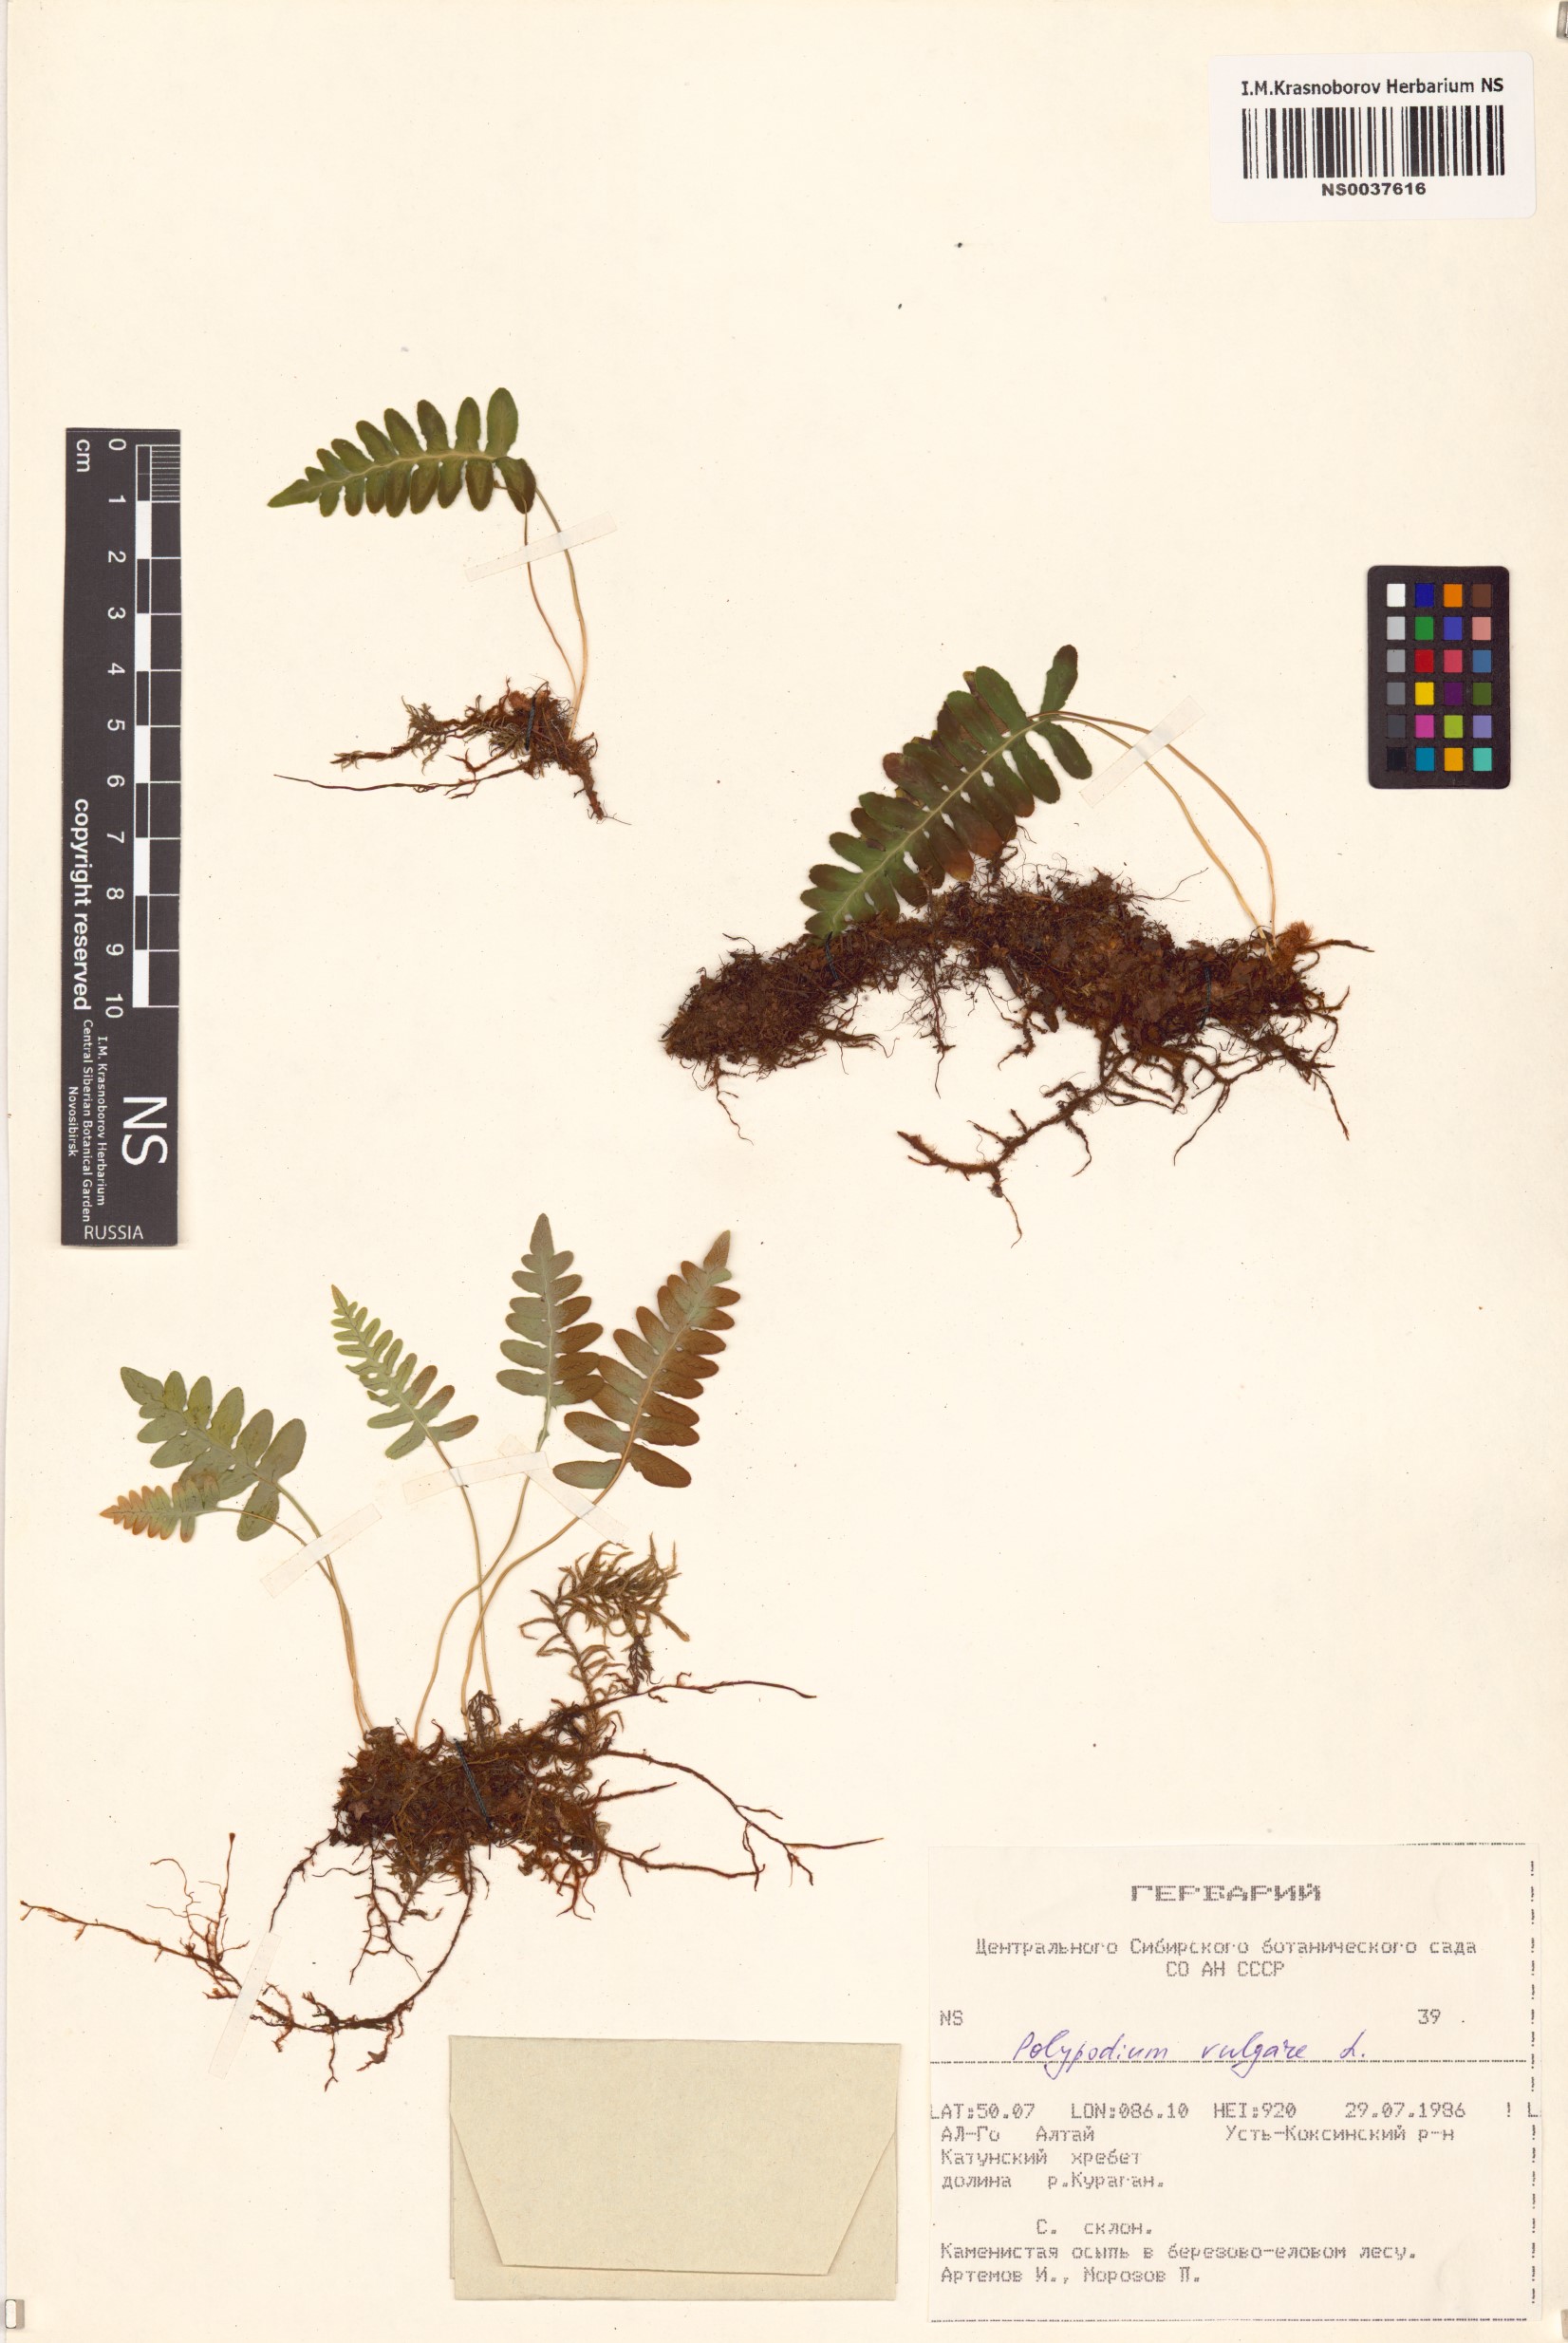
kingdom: Plantae
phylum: Tracheophyta
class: Polypodiopsida
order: Polypodiales
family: Polypodiaceae
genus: Polypodium
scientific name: Polypodium vulgare
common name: Common polypody
